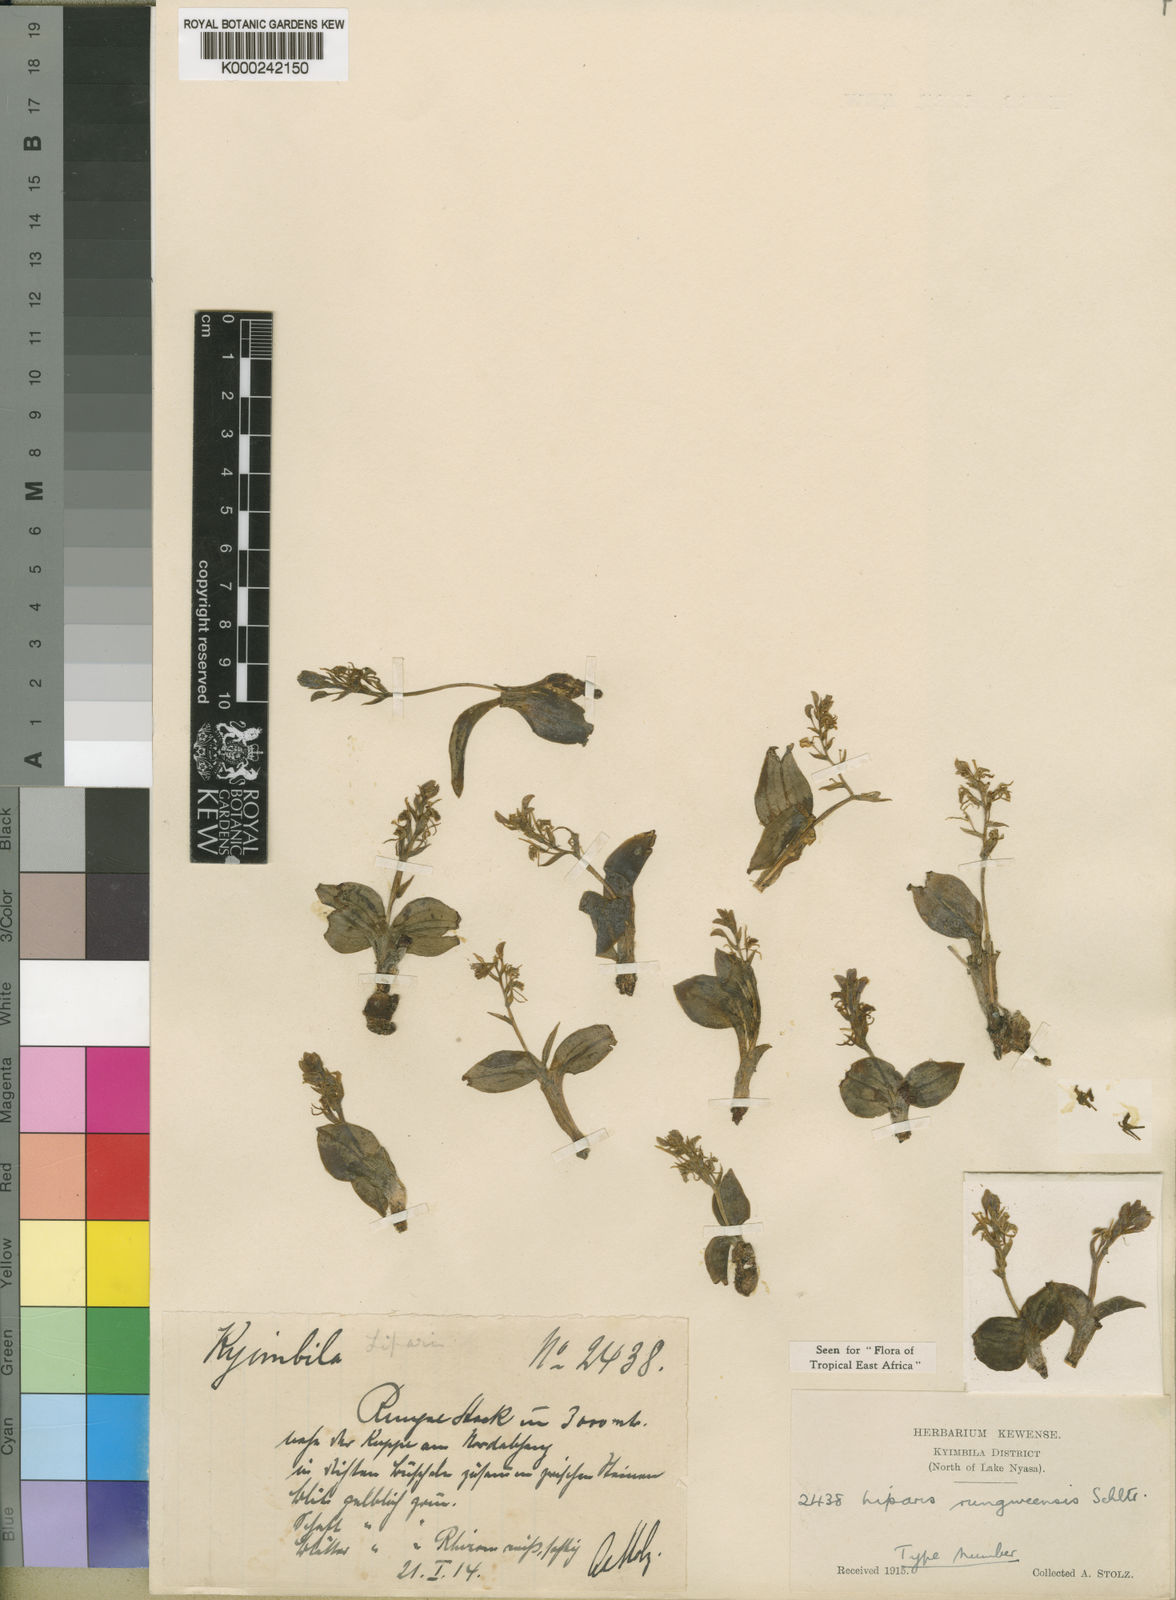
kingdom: Plantae
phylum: Tracheophyta
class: Liliopsida
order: Asparagales
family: Orchidaceae
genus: Liparis
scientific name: Liparis rungweensis
